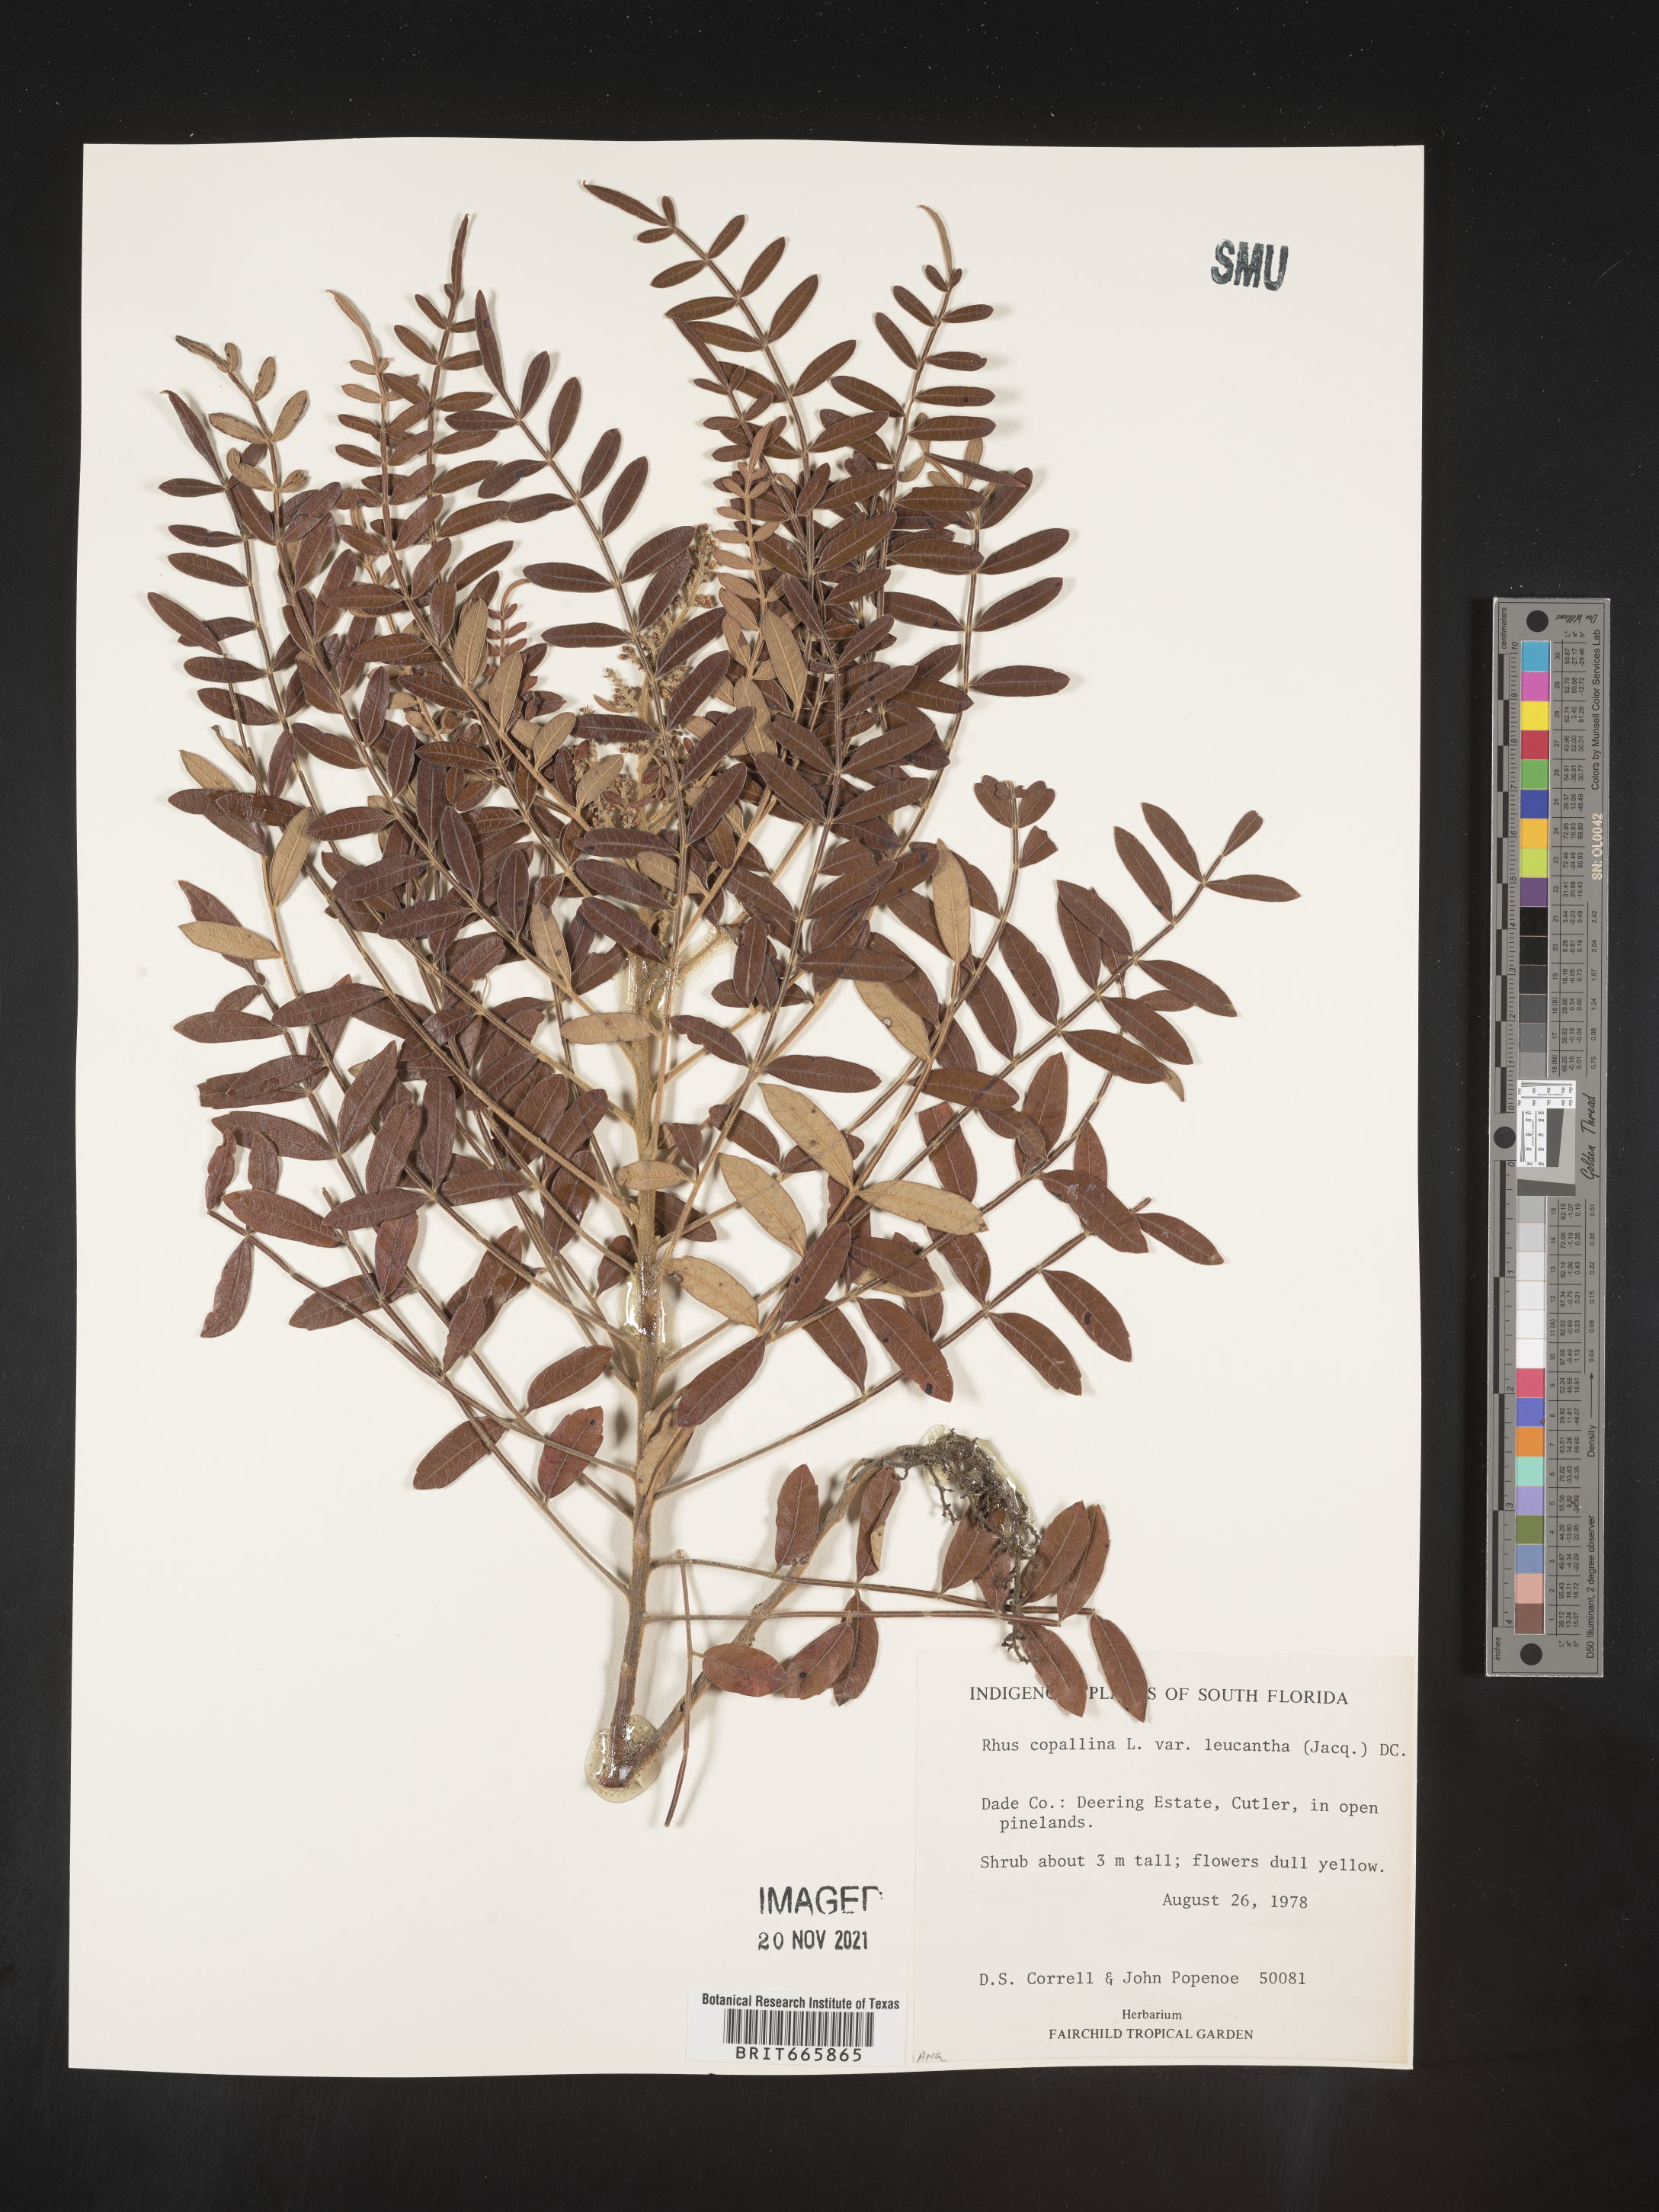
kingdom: Plantae
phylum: Tracheophyta
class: Magnoliopsida
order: Sapindales
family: Anacardiaceae
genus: Rhus
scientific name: Rhus copallina
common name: Shining sumac
